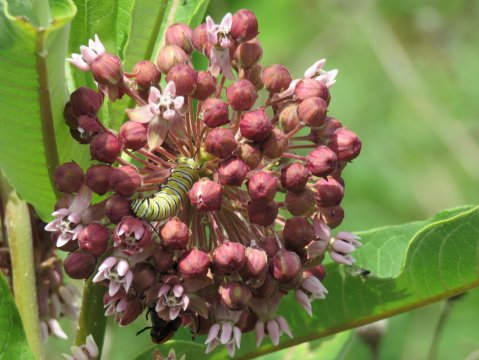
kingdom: Animalia
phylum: Arthropoda
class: Insecta
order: Lepidoptera
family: Nymphalidae
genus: Danaus
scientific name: Danaus plexippus
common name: Monarch
